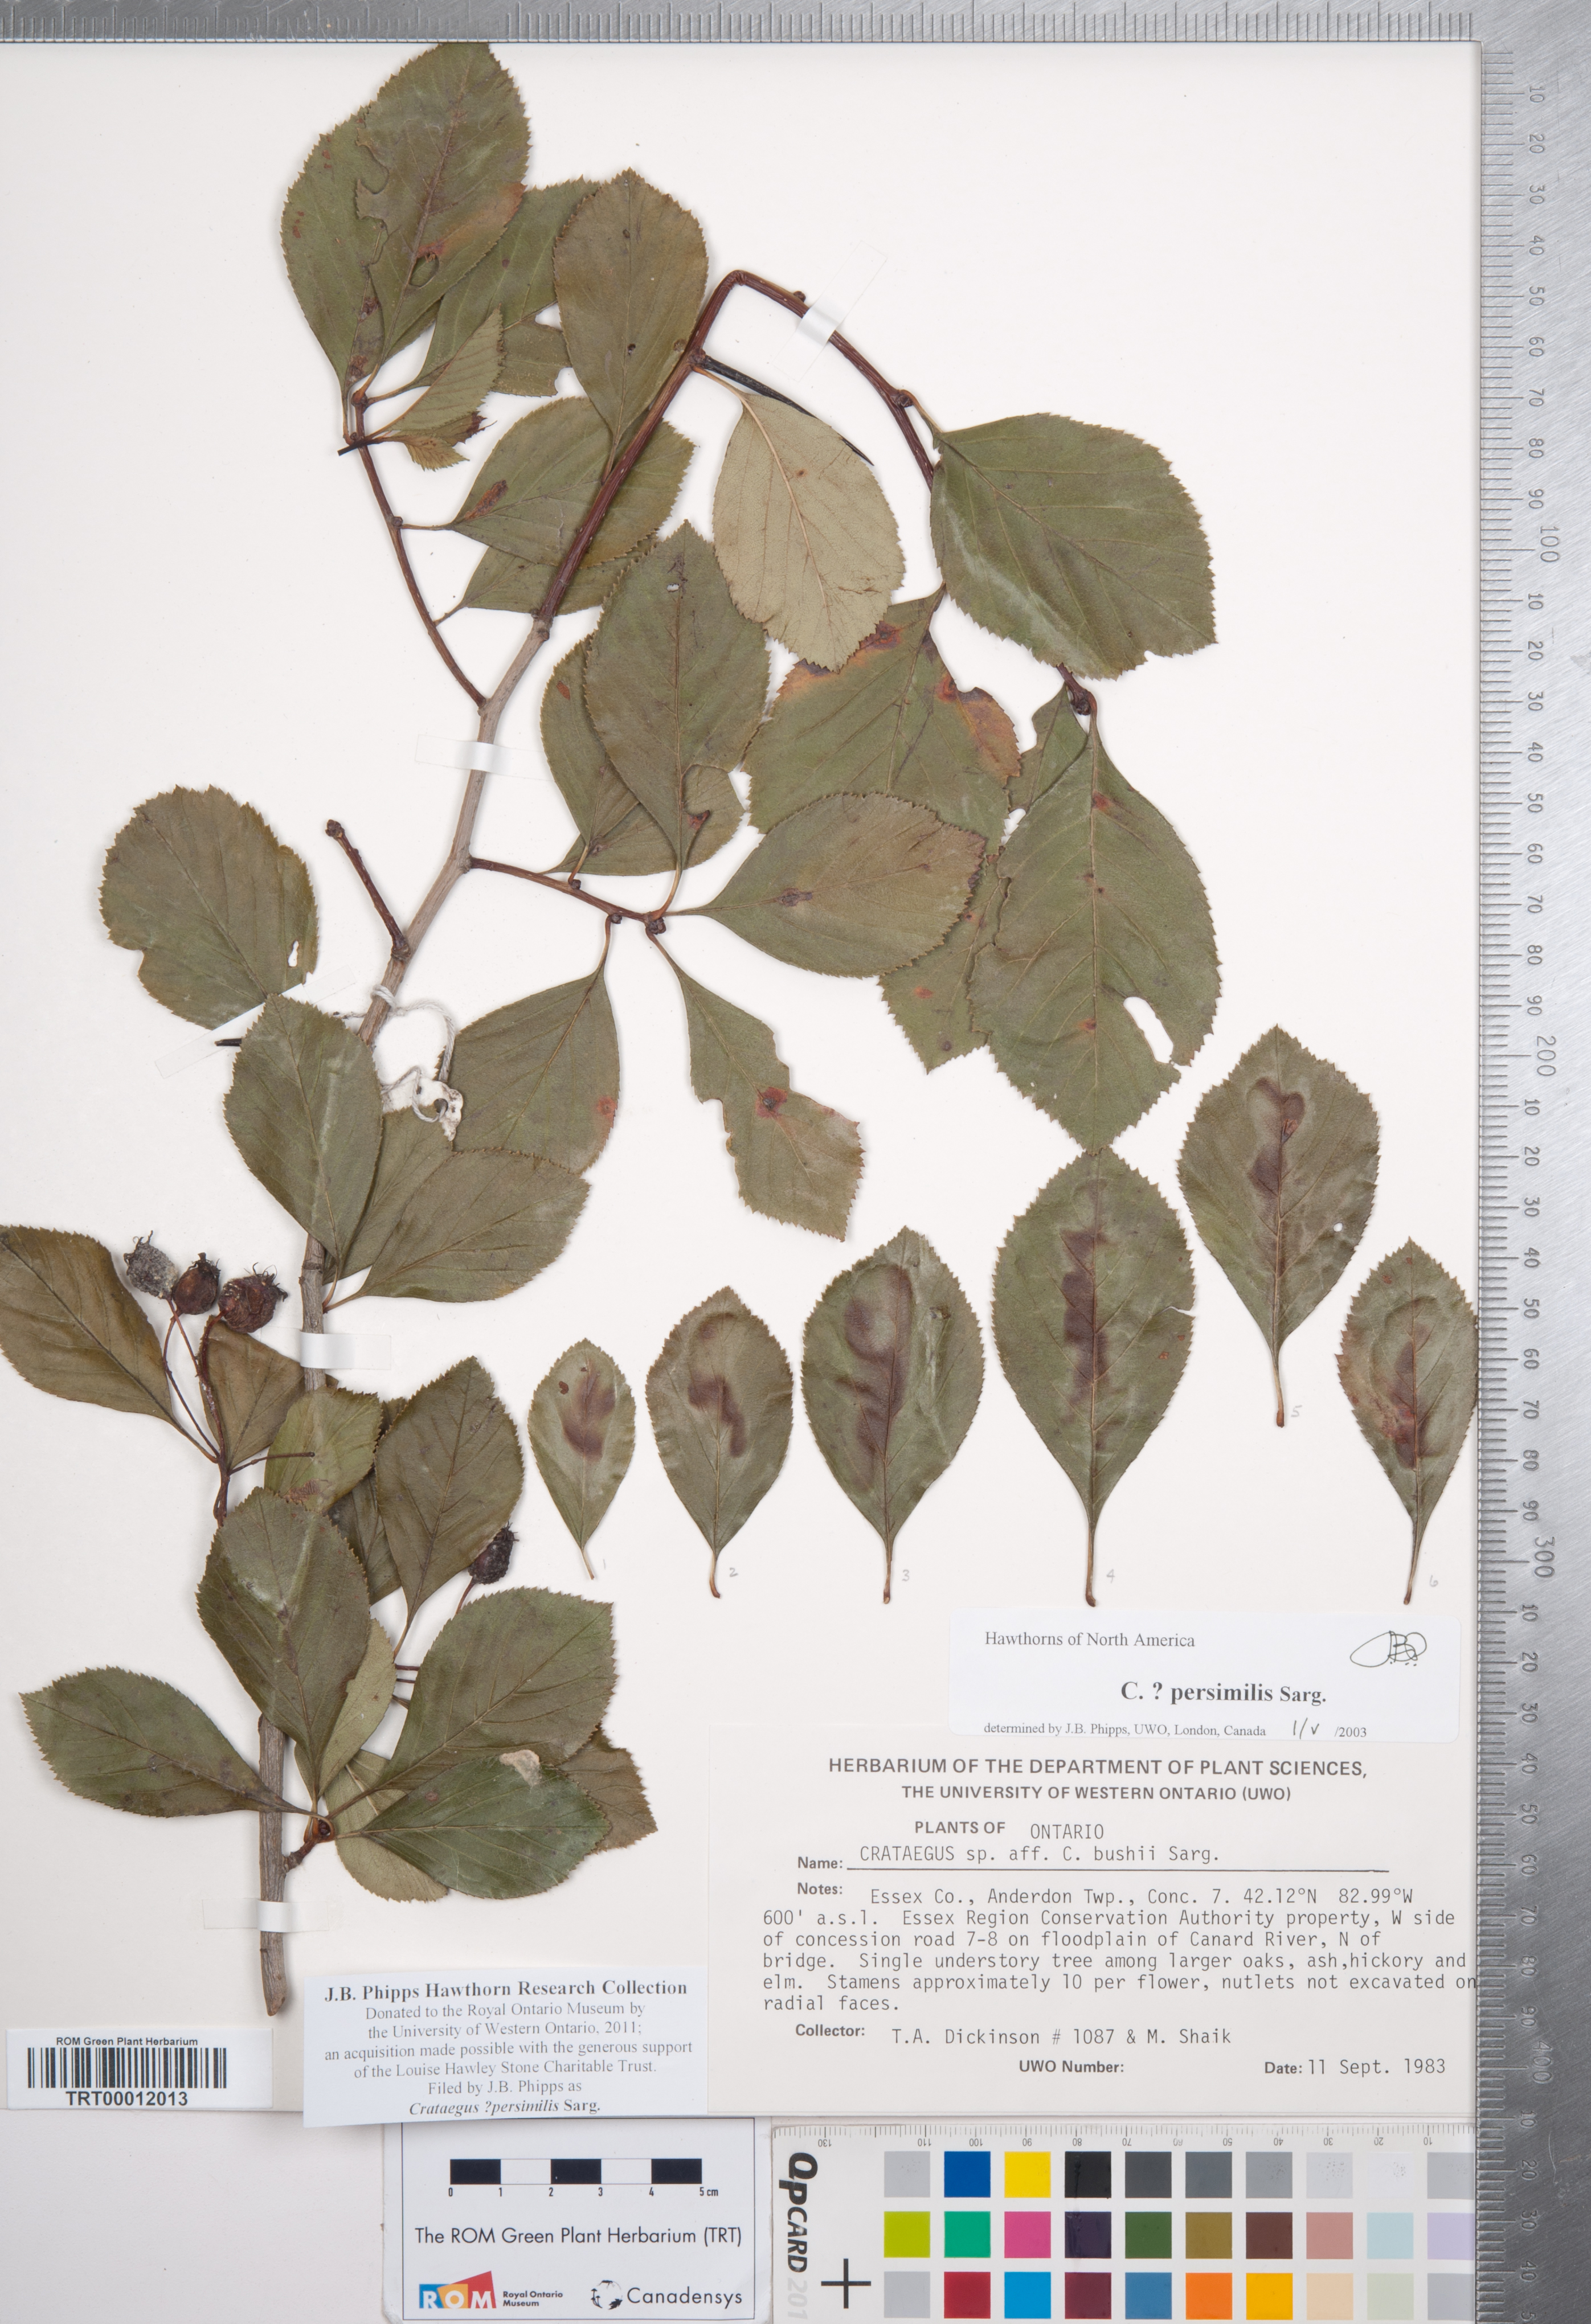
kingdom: Plantae
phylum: Tracheophyta
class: Magnoliopsida
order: Rosales
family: Rosaceae
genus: Crataegus
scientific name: Crataegus persimilis
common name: Broad-leaved cockspurthorn
